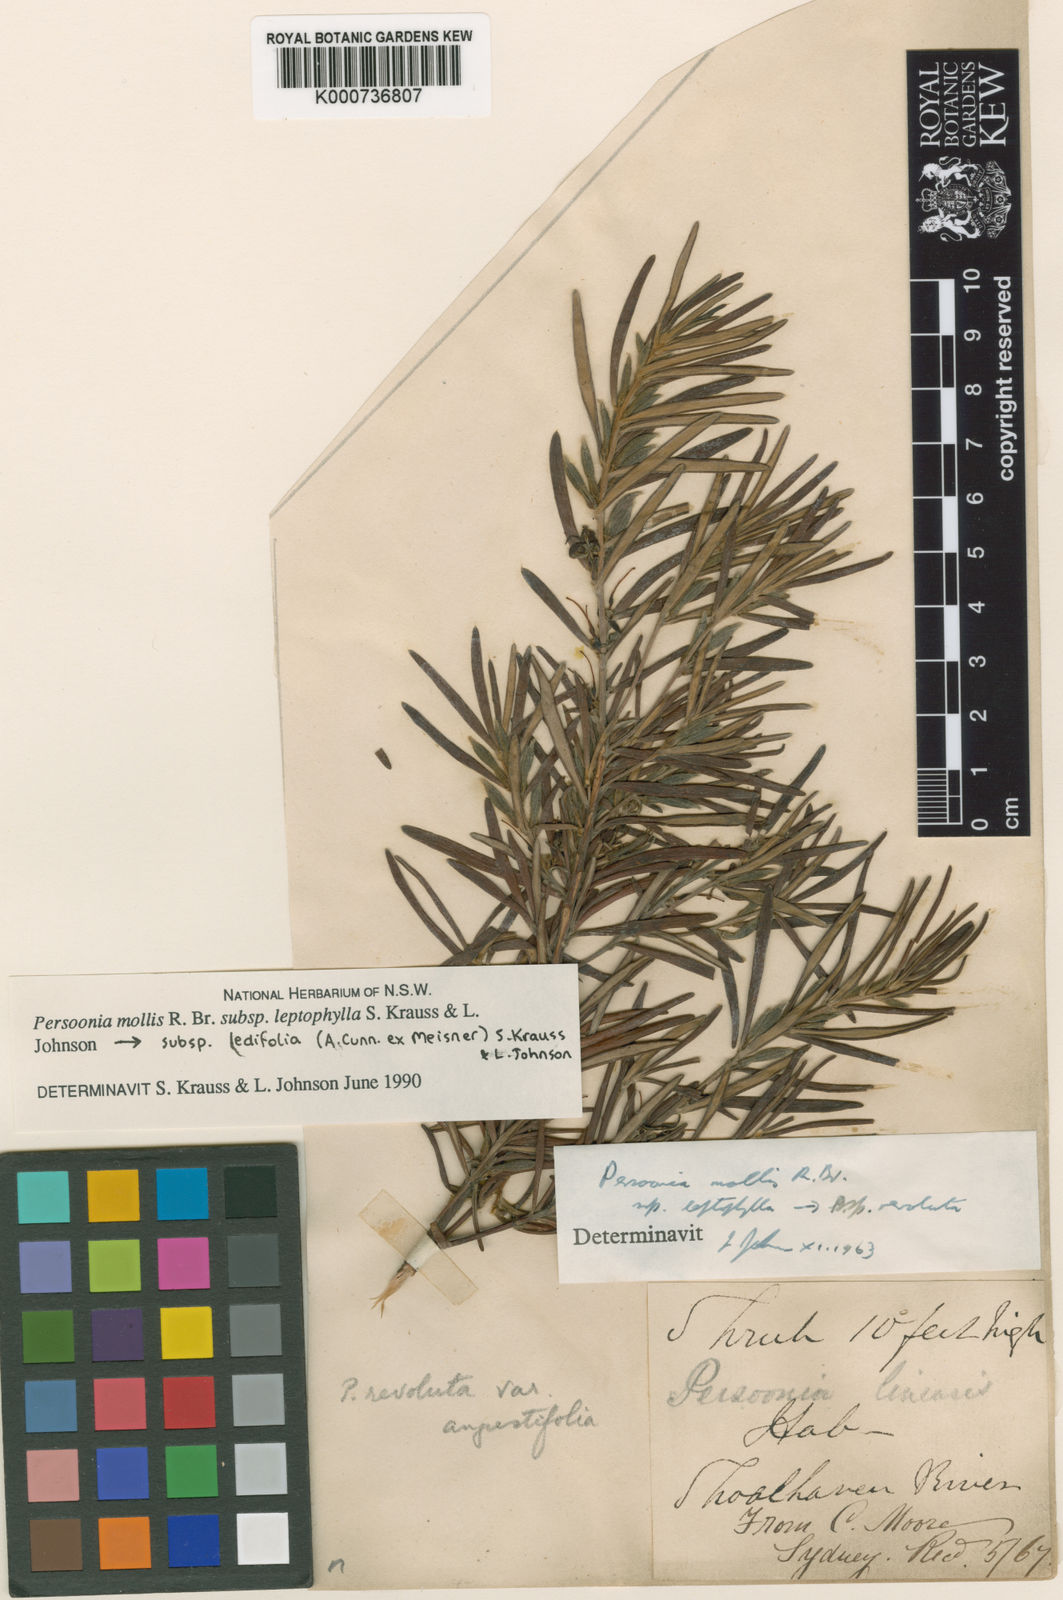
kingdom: Plantae
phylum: Tracheophyta
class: Magnoliopsida
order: Proteales
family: Proteaceae
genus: Persoonia
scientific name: Persoonia mollis
